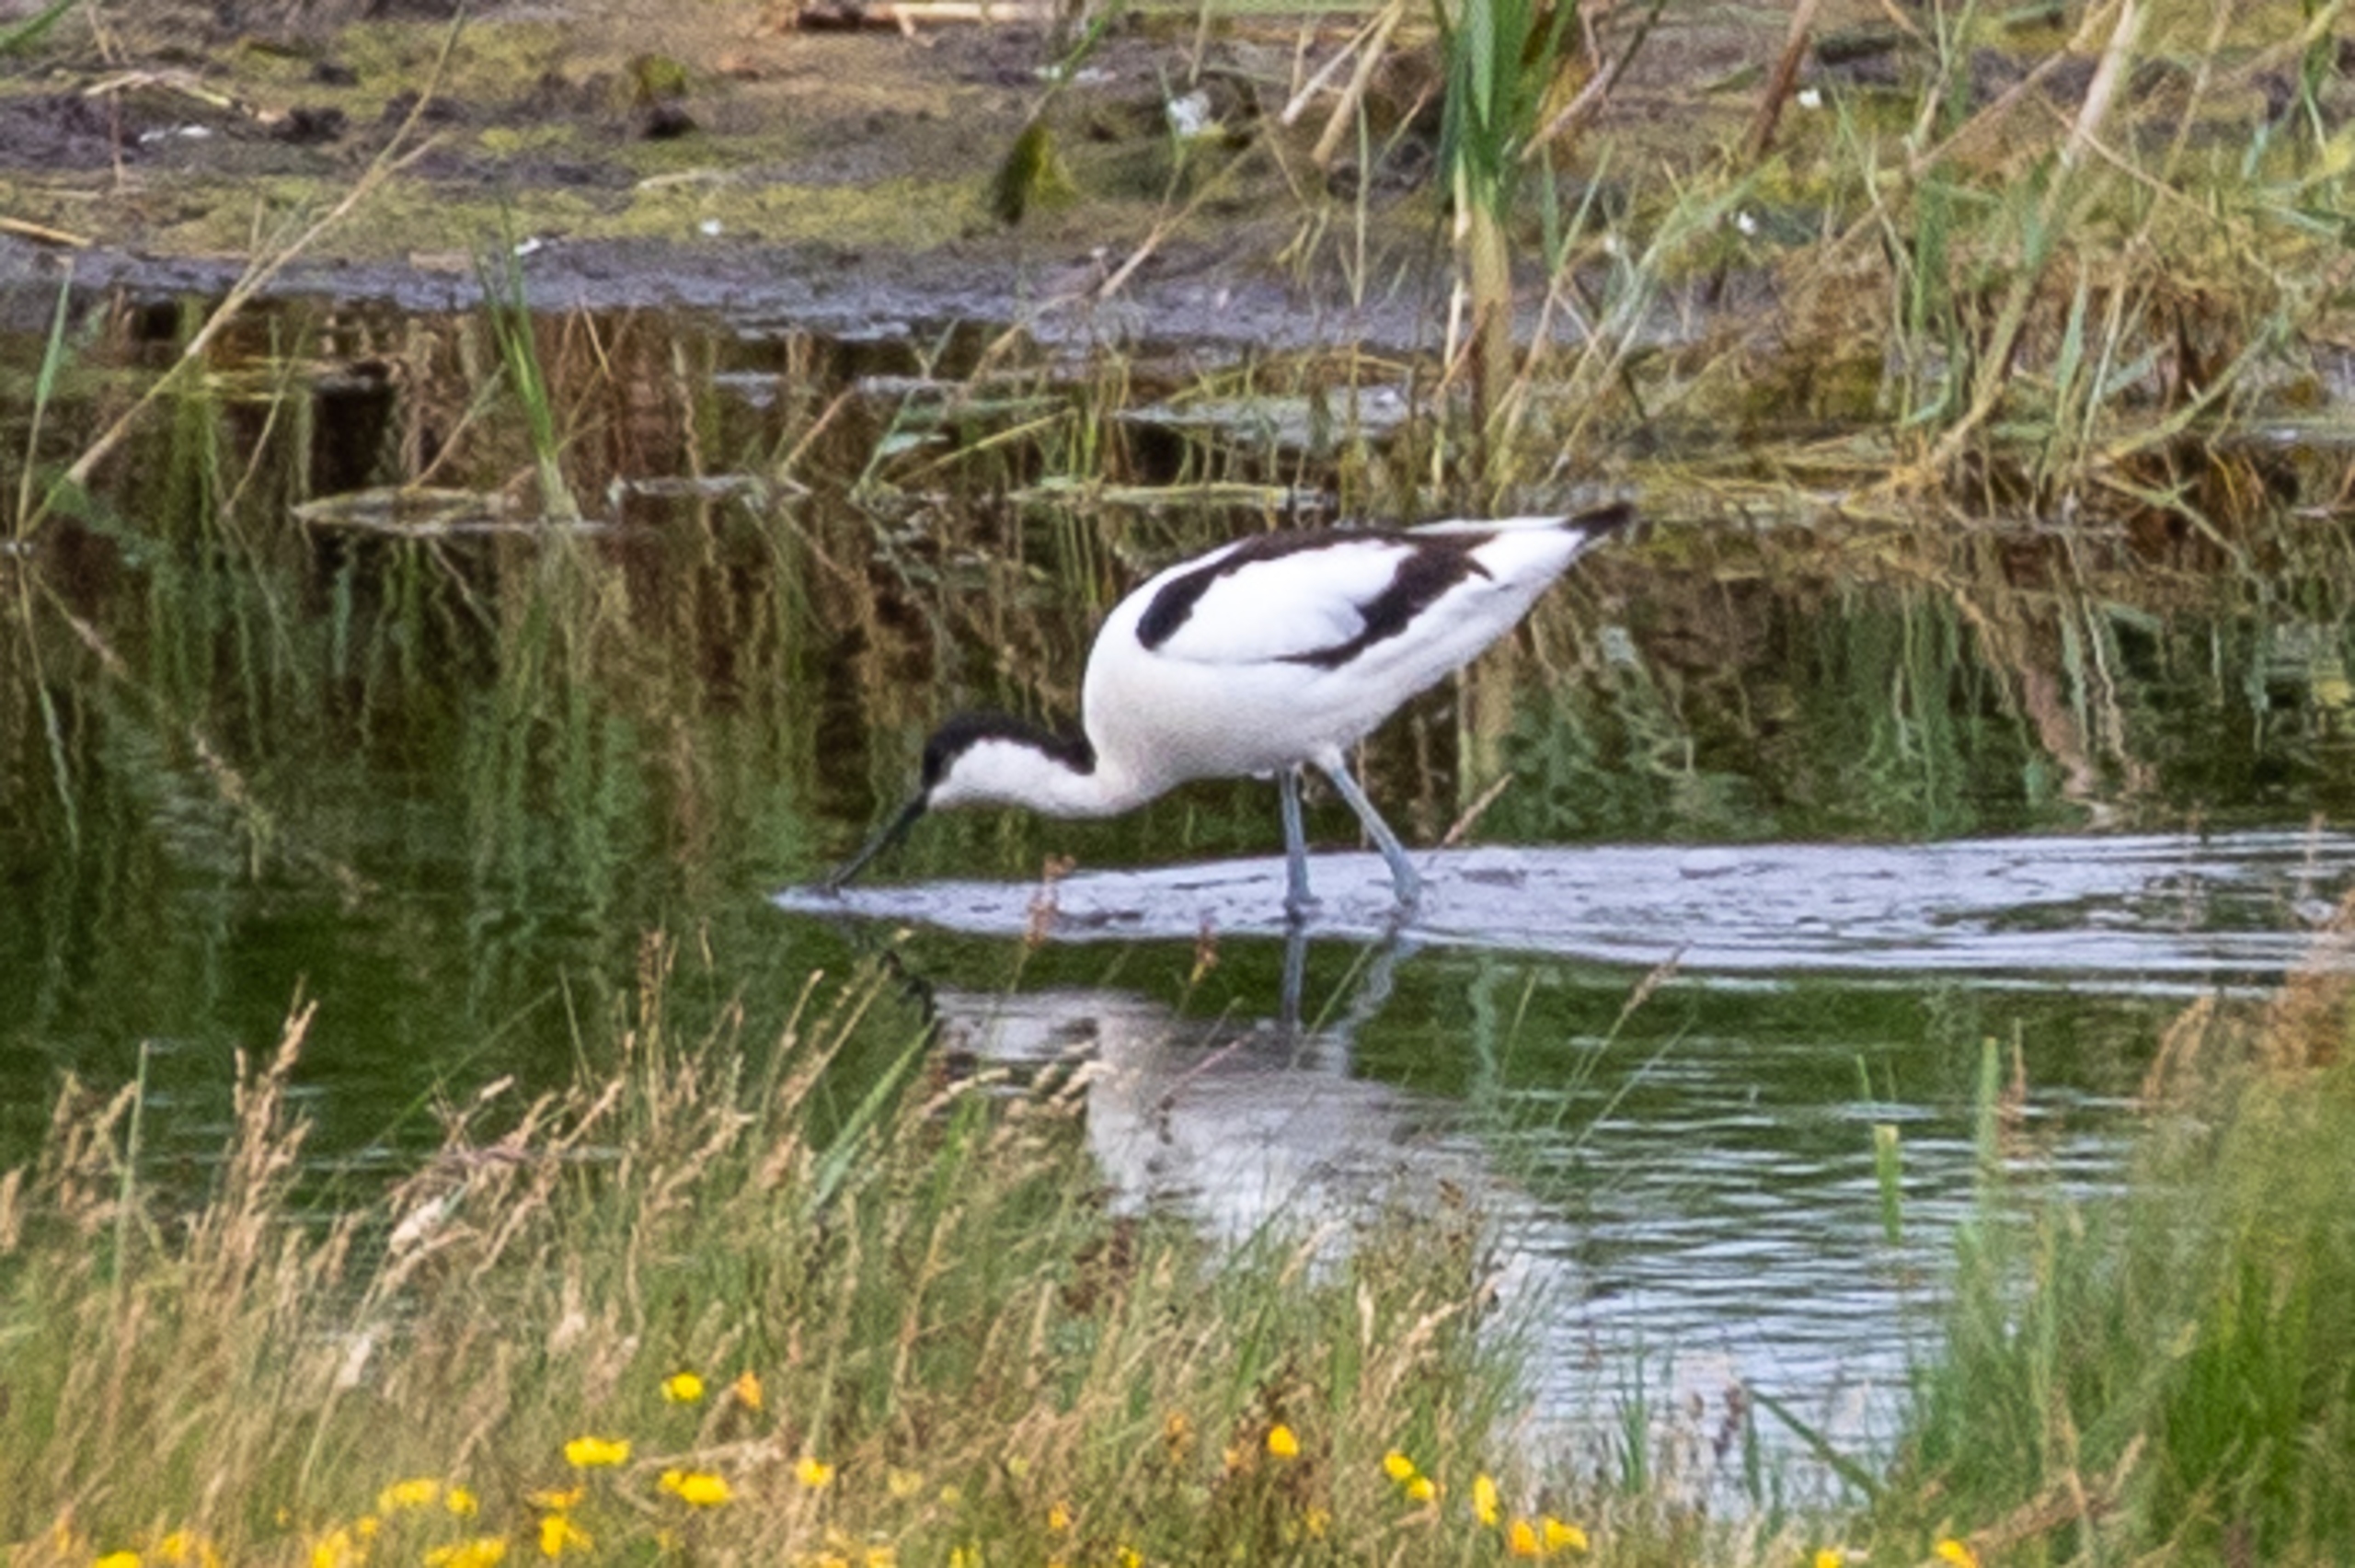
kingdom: Animalia
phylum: Chordata
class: Aves
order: Charadriiformes
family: Recurvirostridae
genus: Recurvirostra
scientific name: Recurvirostra avosetta
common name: Klyde
